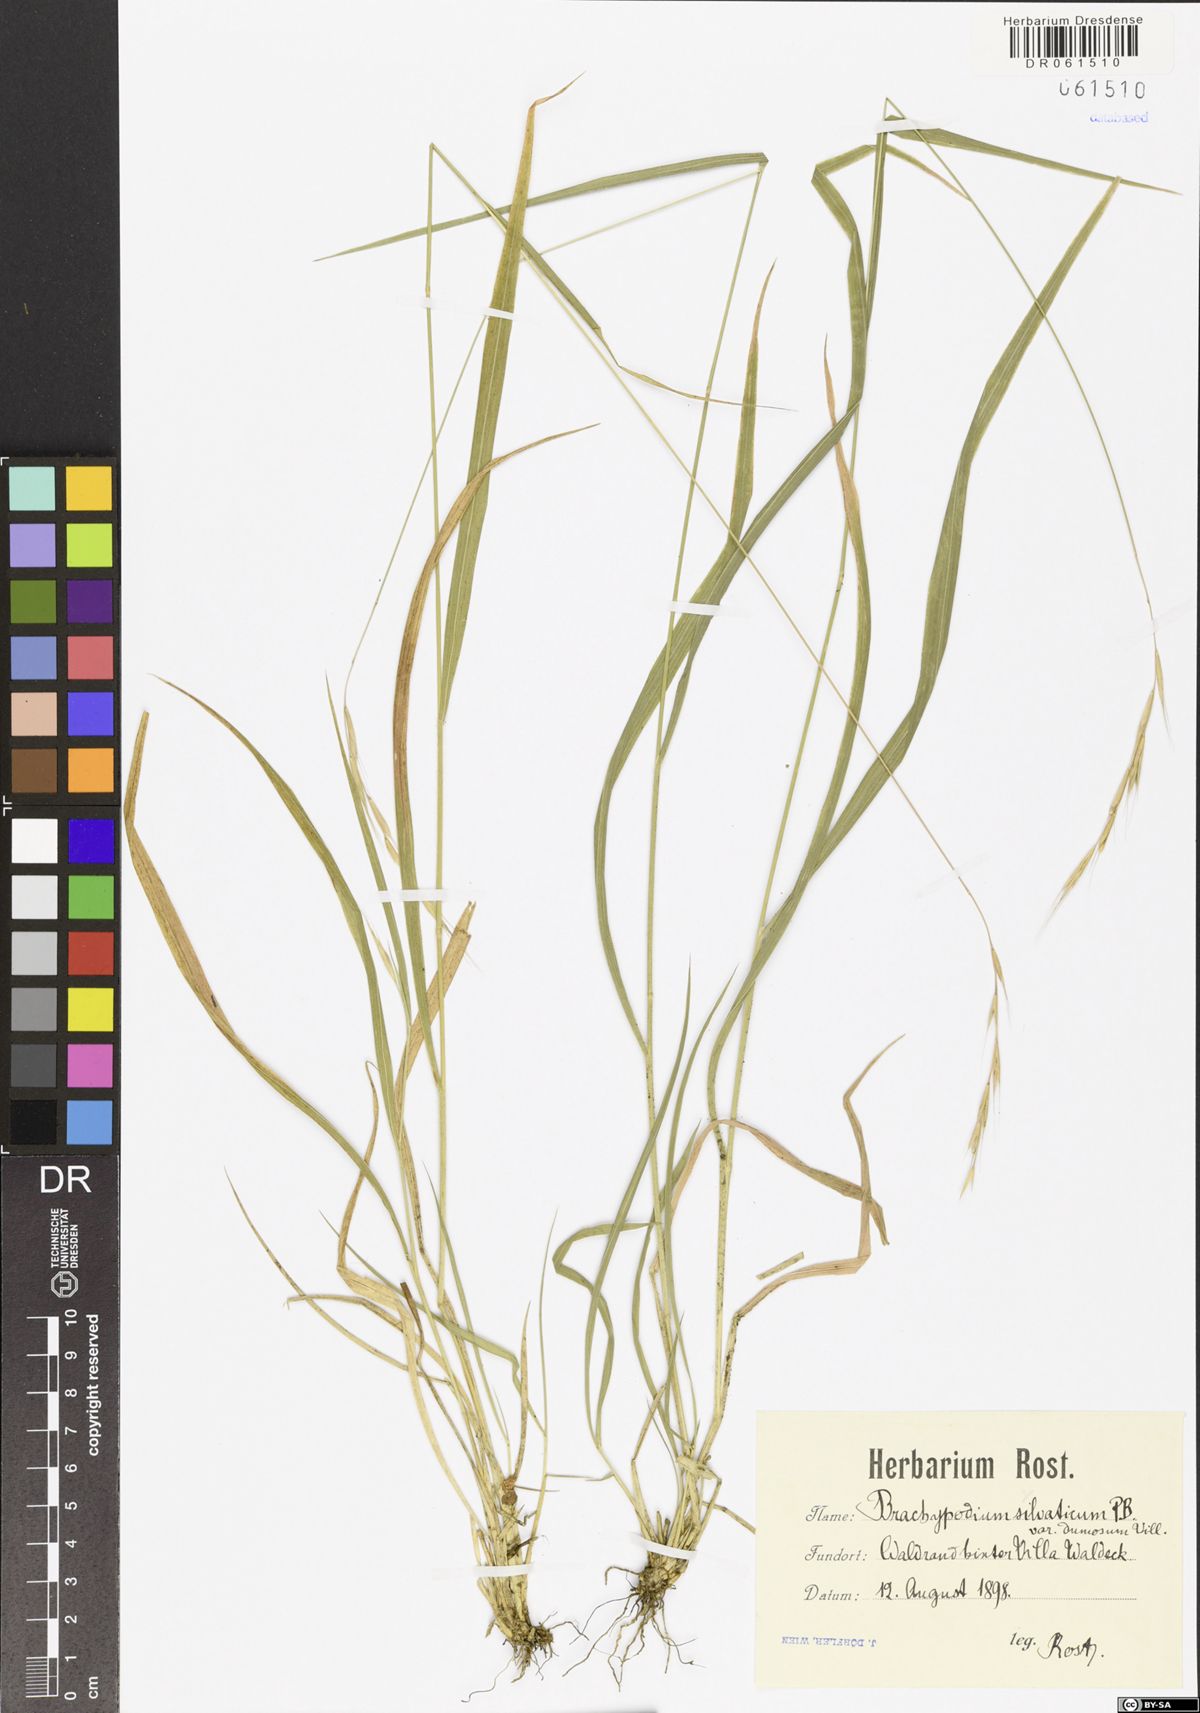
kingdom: Plantae
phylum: Tracheophyta
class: Liliopsida
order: Poales
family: Poaceae
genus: Brachypodium
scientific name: Brachypodium sylvaticum
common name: False-brome
